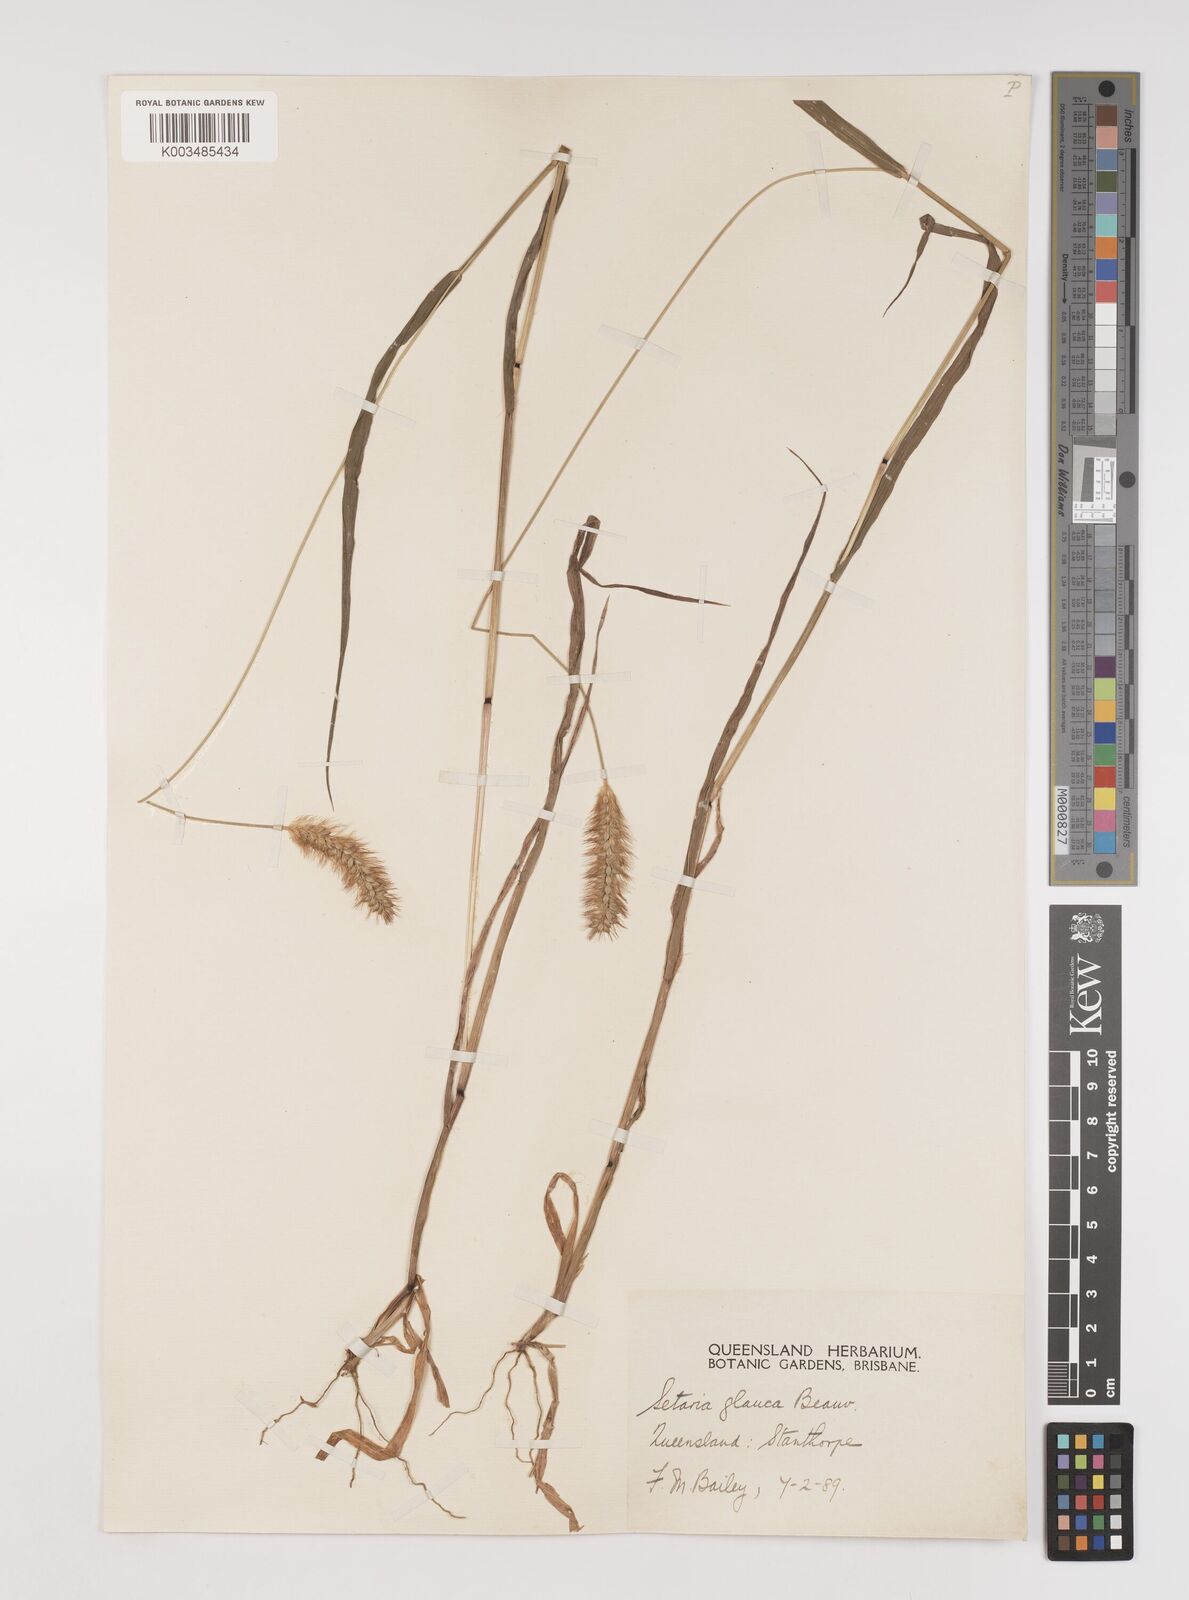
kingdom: Plantae
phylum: Tracheophyta
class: Liliopsida
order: Poales
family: Poaceae
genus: Setaria
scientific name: Setaria pumila
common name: Yellow bristle-grass
